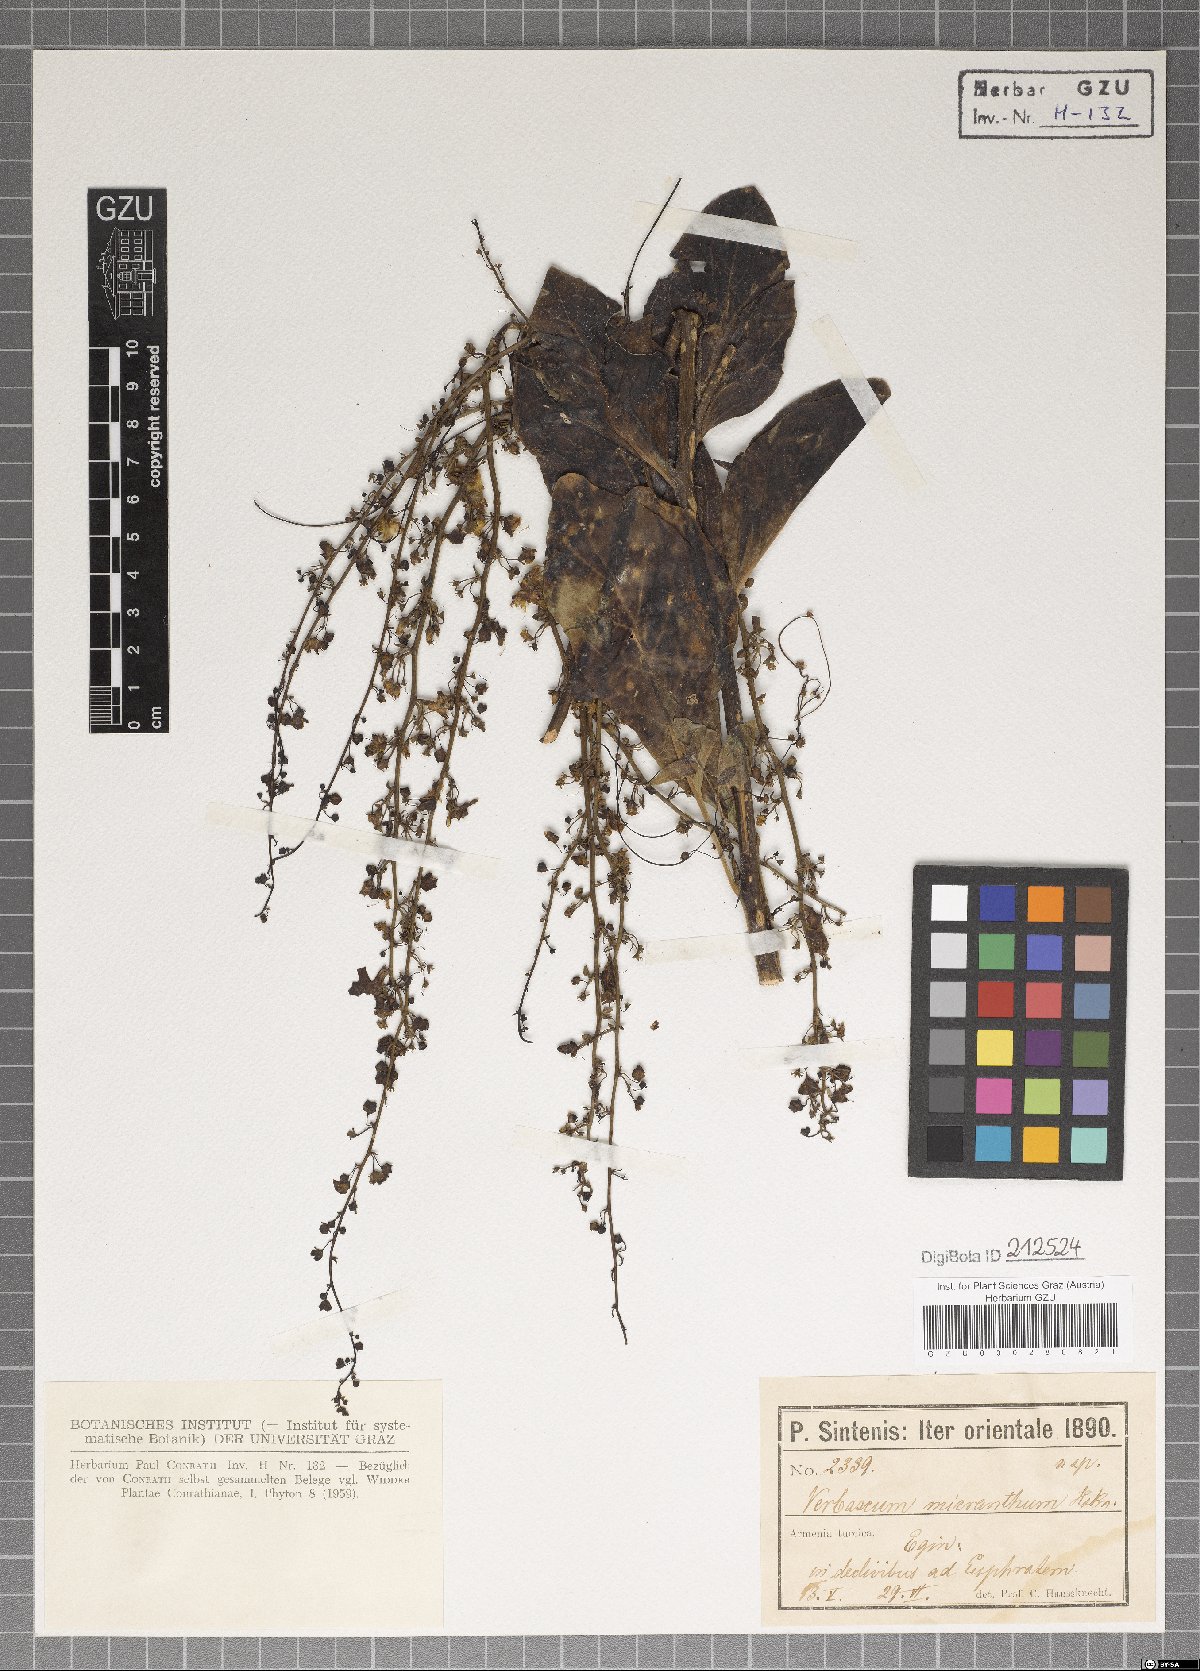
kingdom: Plantae
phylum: Tracheophyta
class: Magnoliopsida
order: Lamiales
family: Scrophulariaceae
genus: Verbascum
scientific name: Verbascum lychnitis
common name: White mullein
